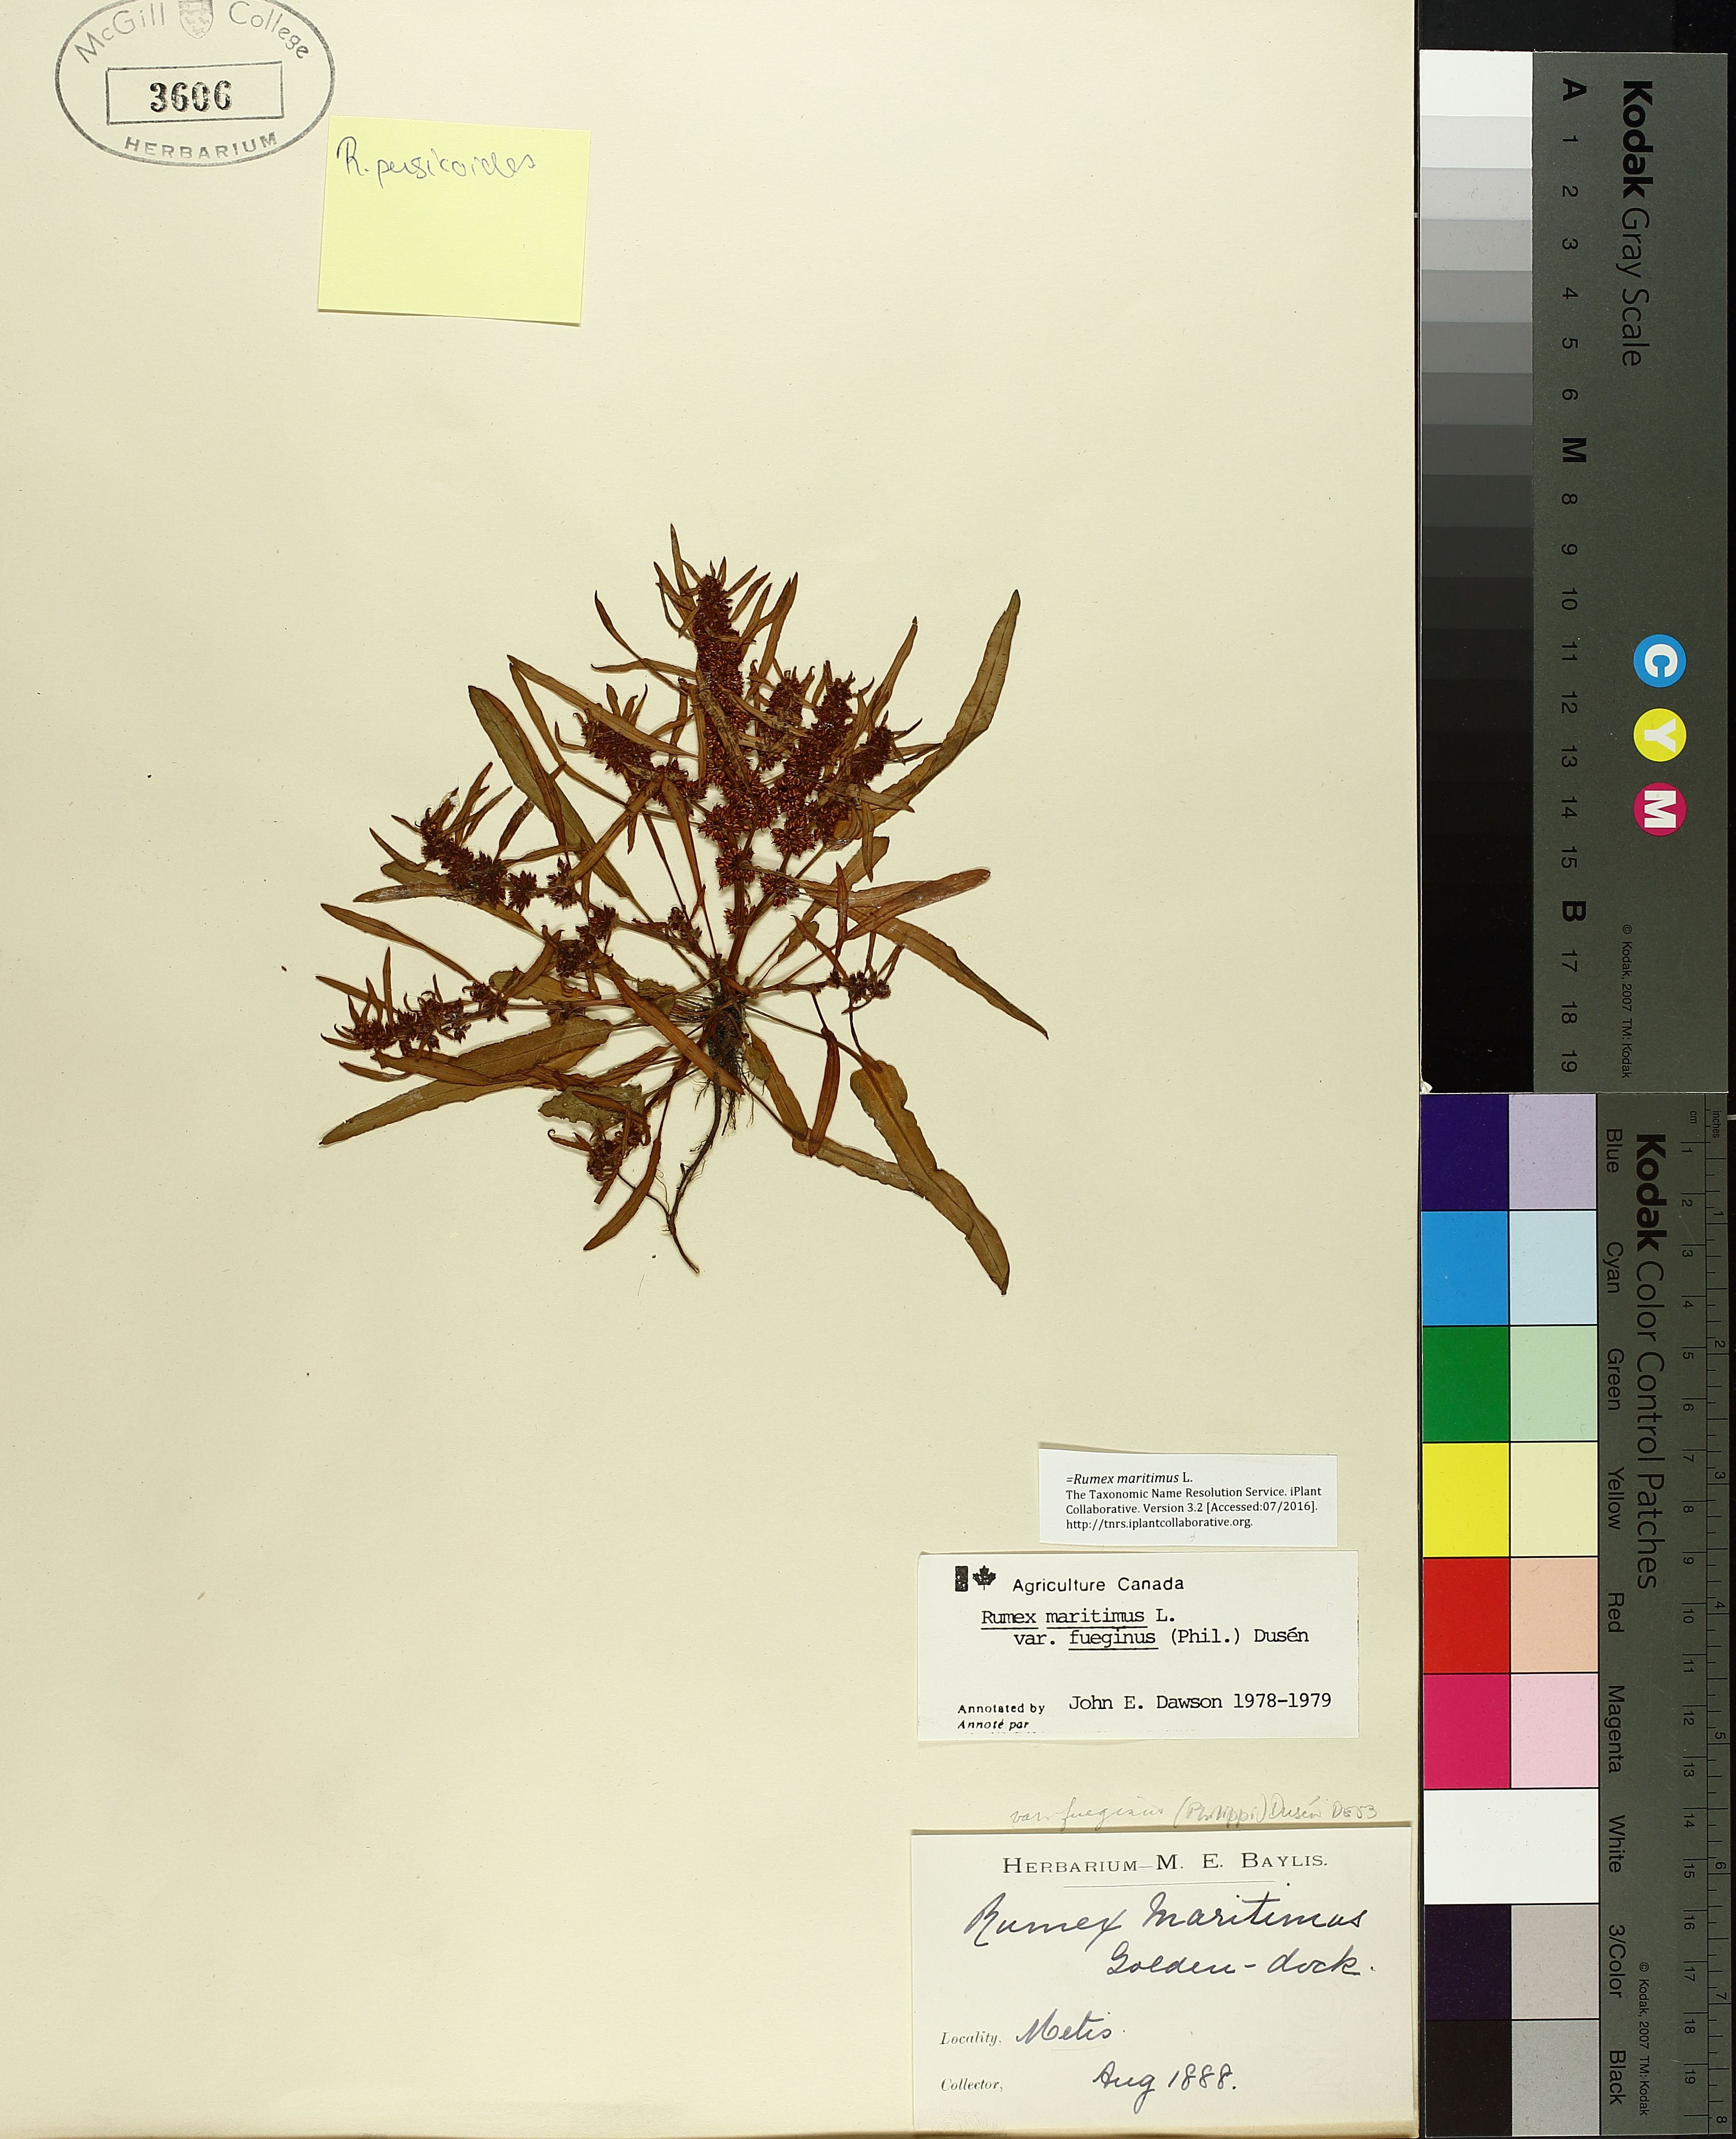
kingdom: Plantae
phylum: Tracheophyta
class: Magnoliopsida
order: Caryophyllales
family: Polygonaceae
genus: Rumex
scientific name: Rumex maritimus
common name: Golden dock
